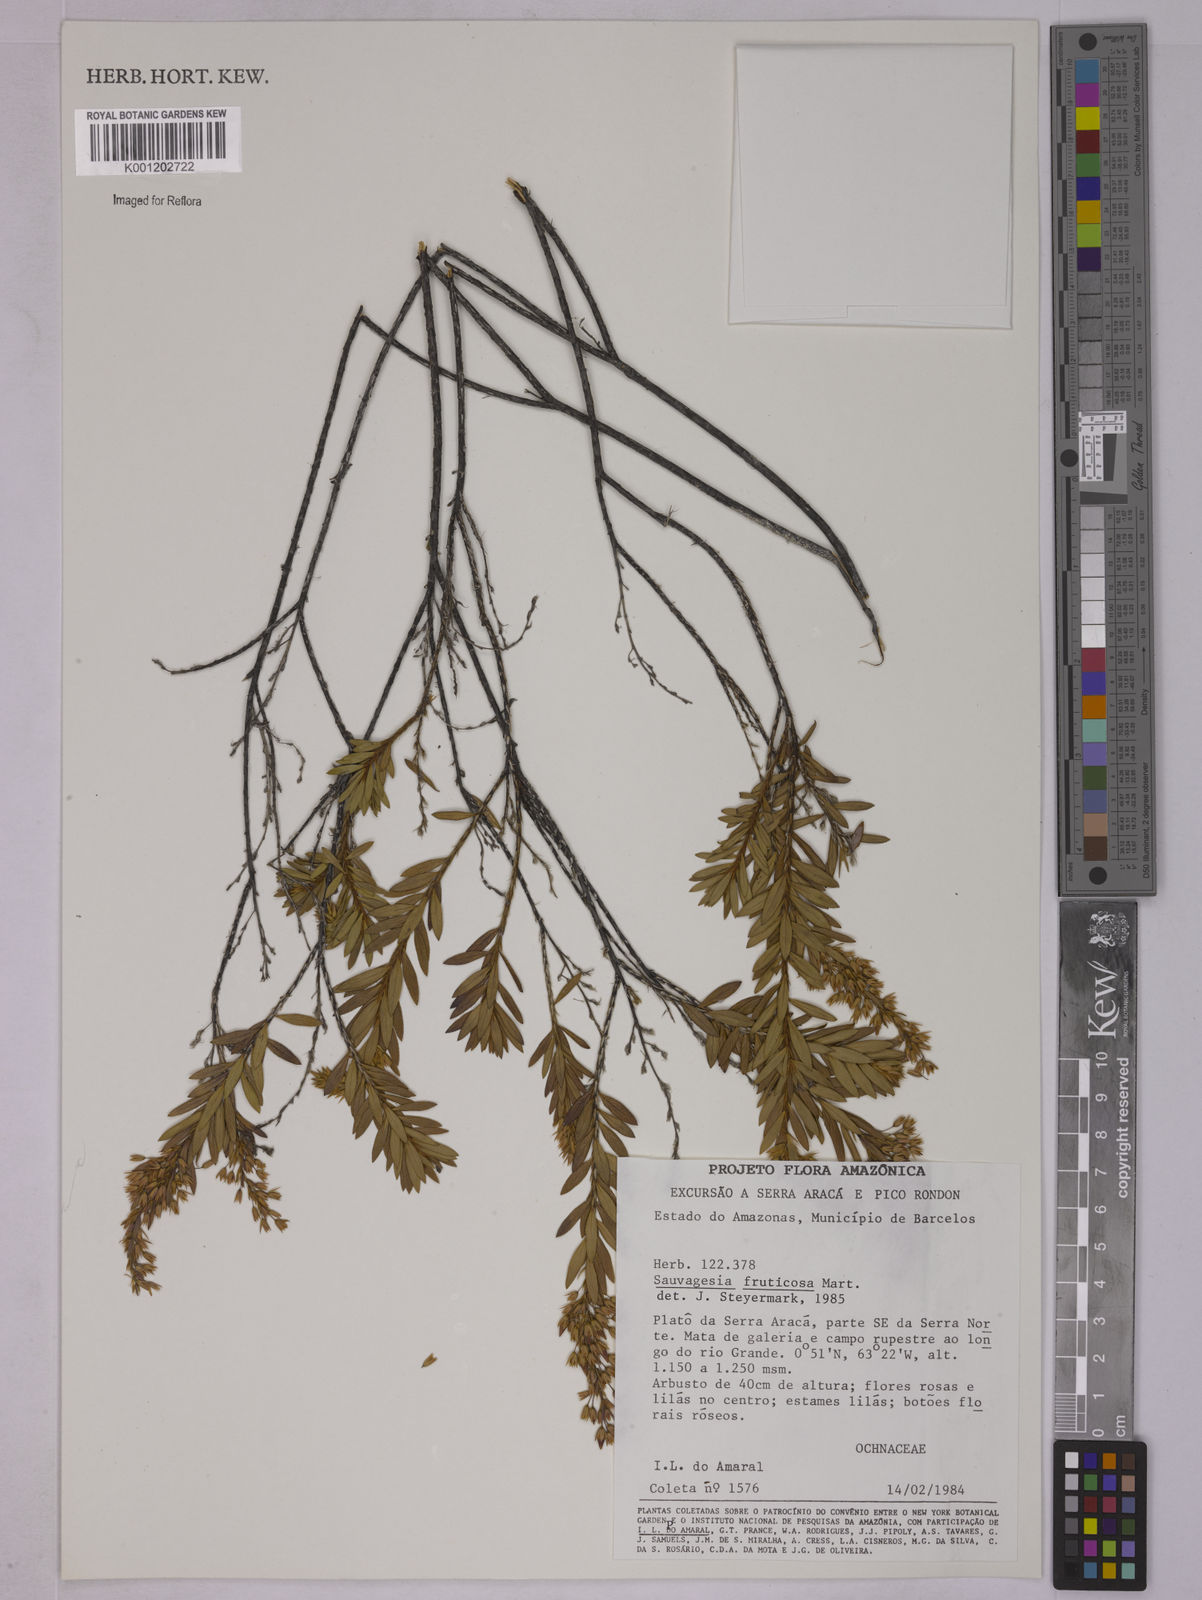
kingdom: Plantae
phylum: Tracheophyta
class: Magnoliopsida
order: Malpighiales
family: Ochnaceae
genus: Sauvagesia
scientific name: Sauvagesia fruticosa
